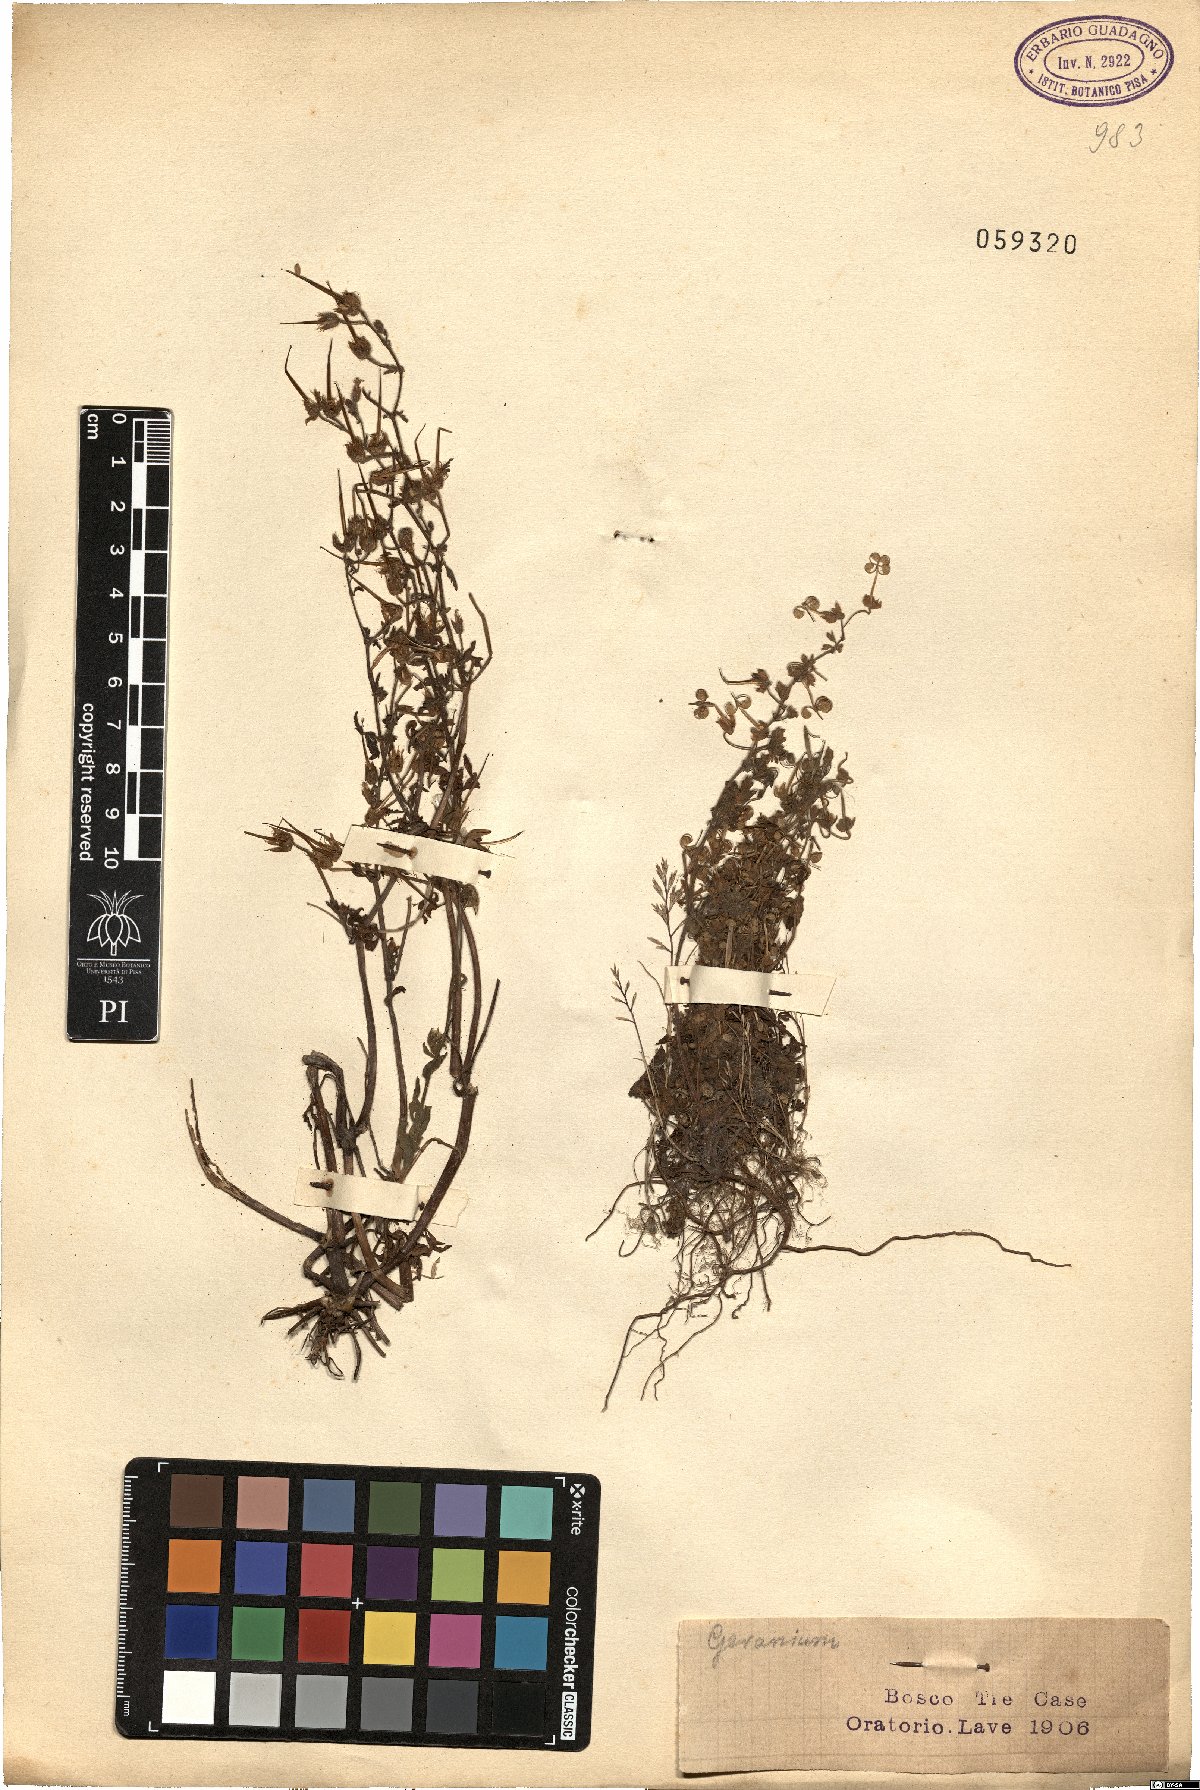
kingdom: Plantae
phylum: Tracheophyta
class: Magnoliopsida
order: Geraniales
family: Geraniaceae
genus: Geranium
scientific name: Geranium
